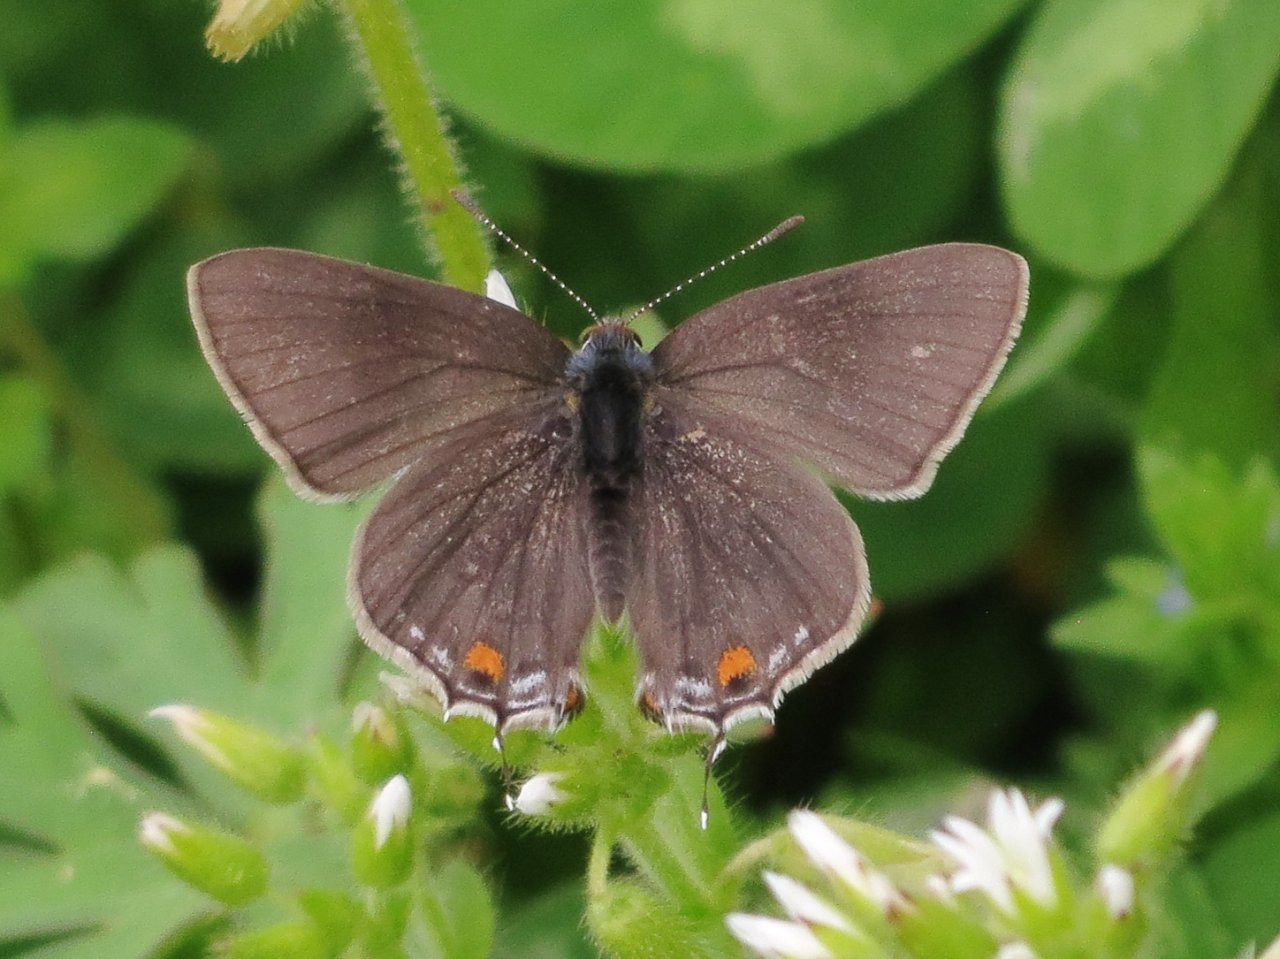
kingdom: Animalia
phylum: Arthropoda
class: Insecta
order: Lepidoptera
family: Lycaenidae
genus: Strymon
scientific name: Strymon melinus
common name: Gray Hairstreak
